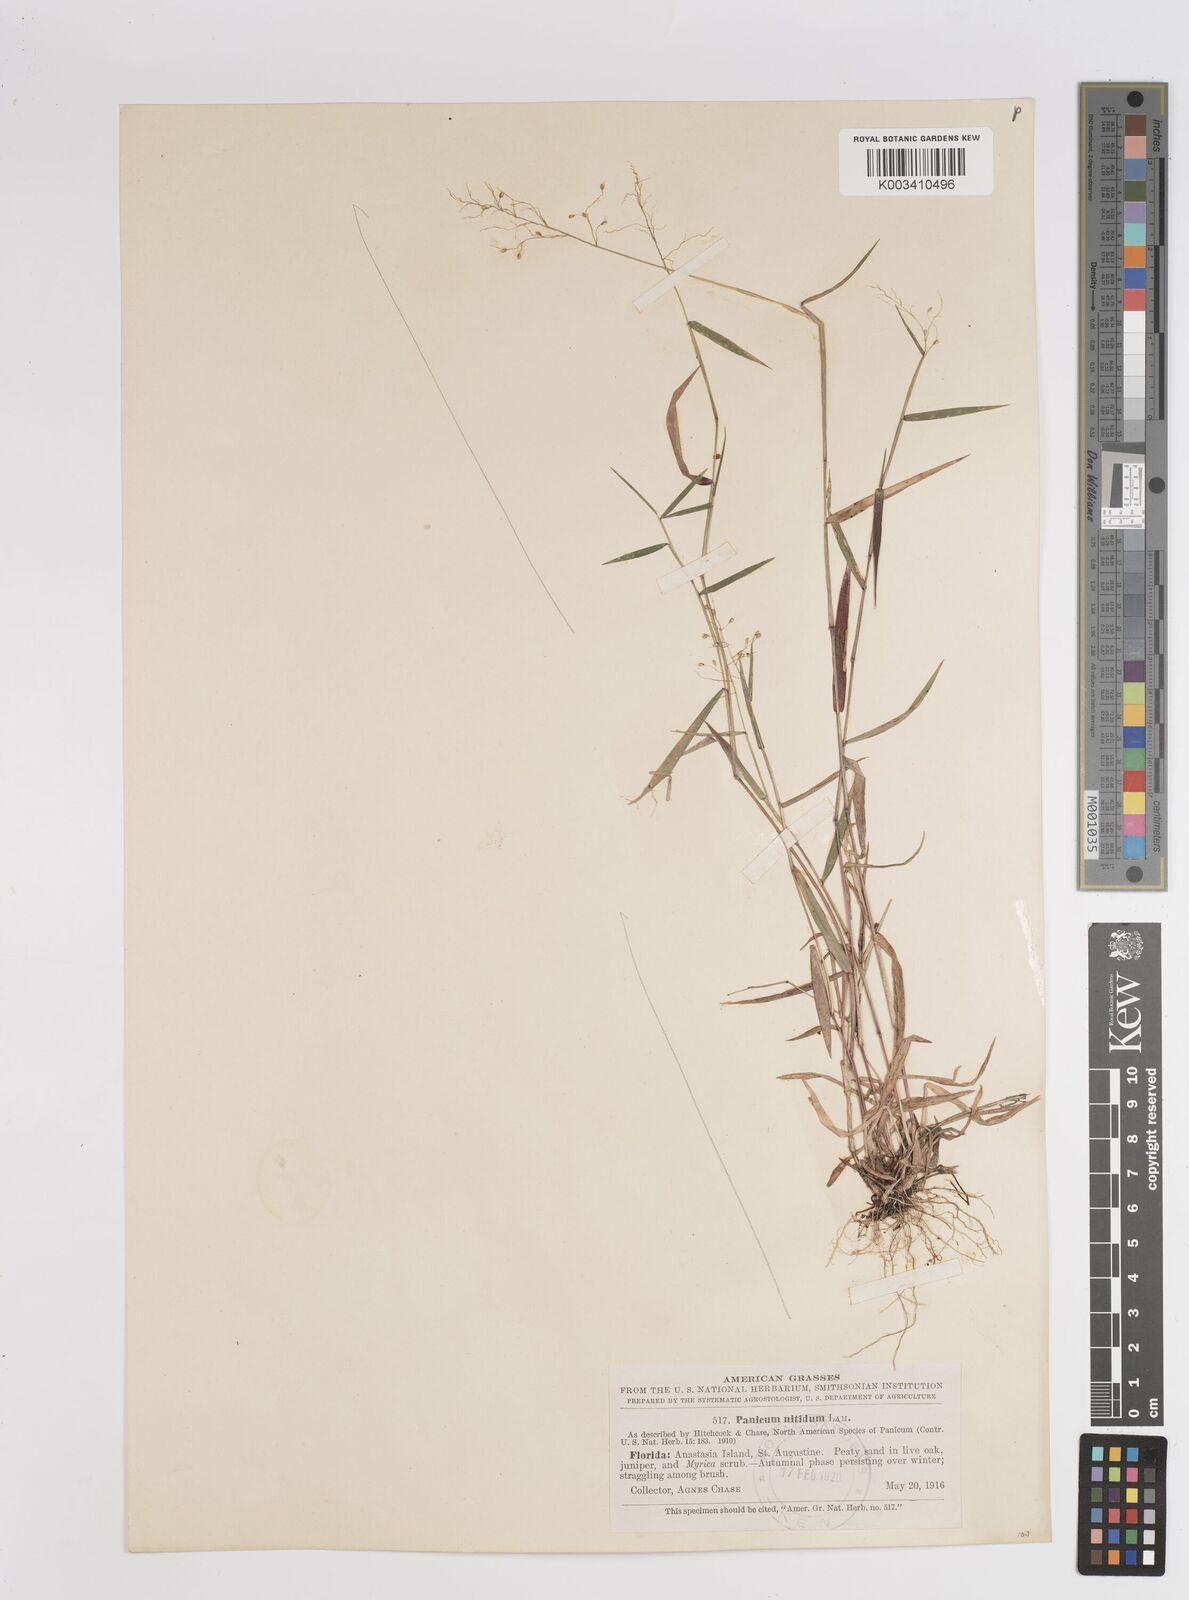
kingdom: Plantae
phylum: Tracheophyta
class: Liliopsida
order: Poales
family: Poaceae
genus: Dichanthelium
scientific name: Dichanthelium polyanthes
